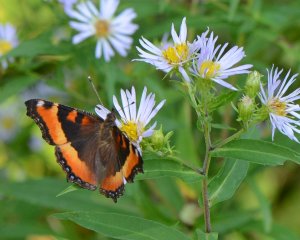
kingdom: Animalia
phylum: Arthropoda
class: Insecta
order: Lepidoptera
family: Nymphalidae
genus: Aglais
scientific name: Aglais milberti
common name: Milbert's Tortoiseshell
